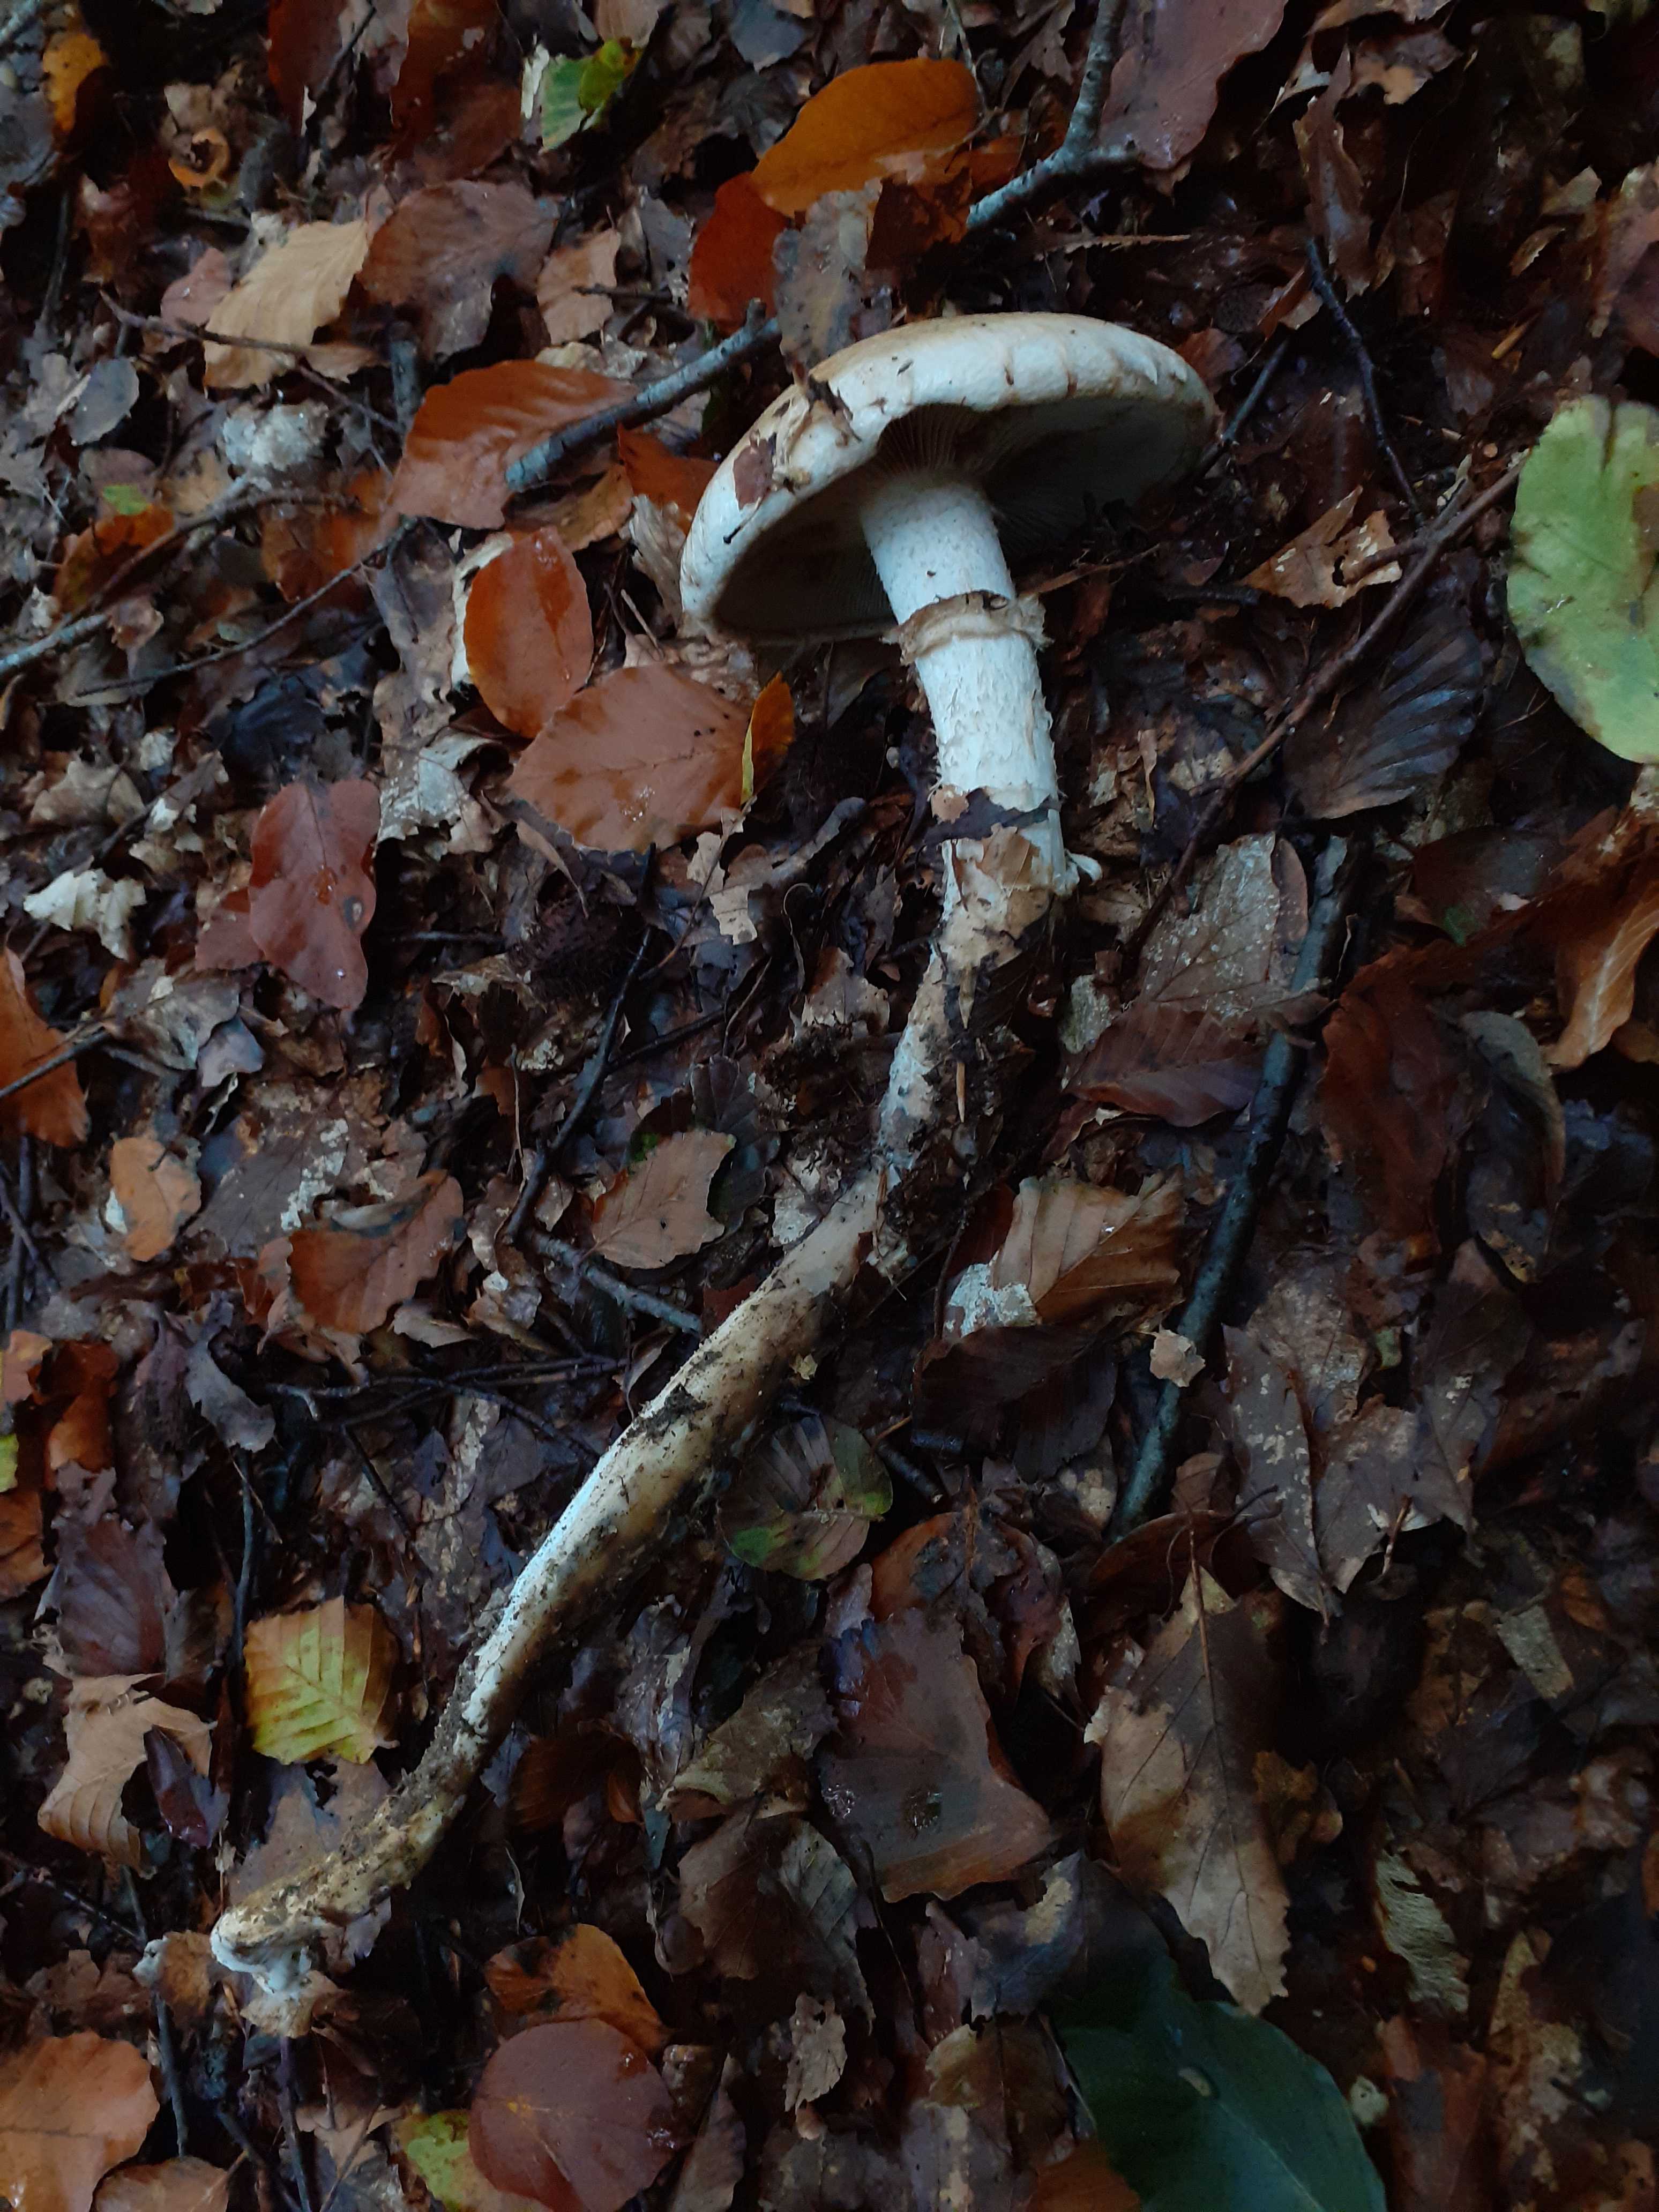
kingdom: Fungi
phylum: Basidiomycota
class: Agaricomycetes
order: Agaricales
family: Hymenogastraceae
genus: Hebeloma
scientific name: Hebeloma radicosum
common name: pælerods-tåreblad
